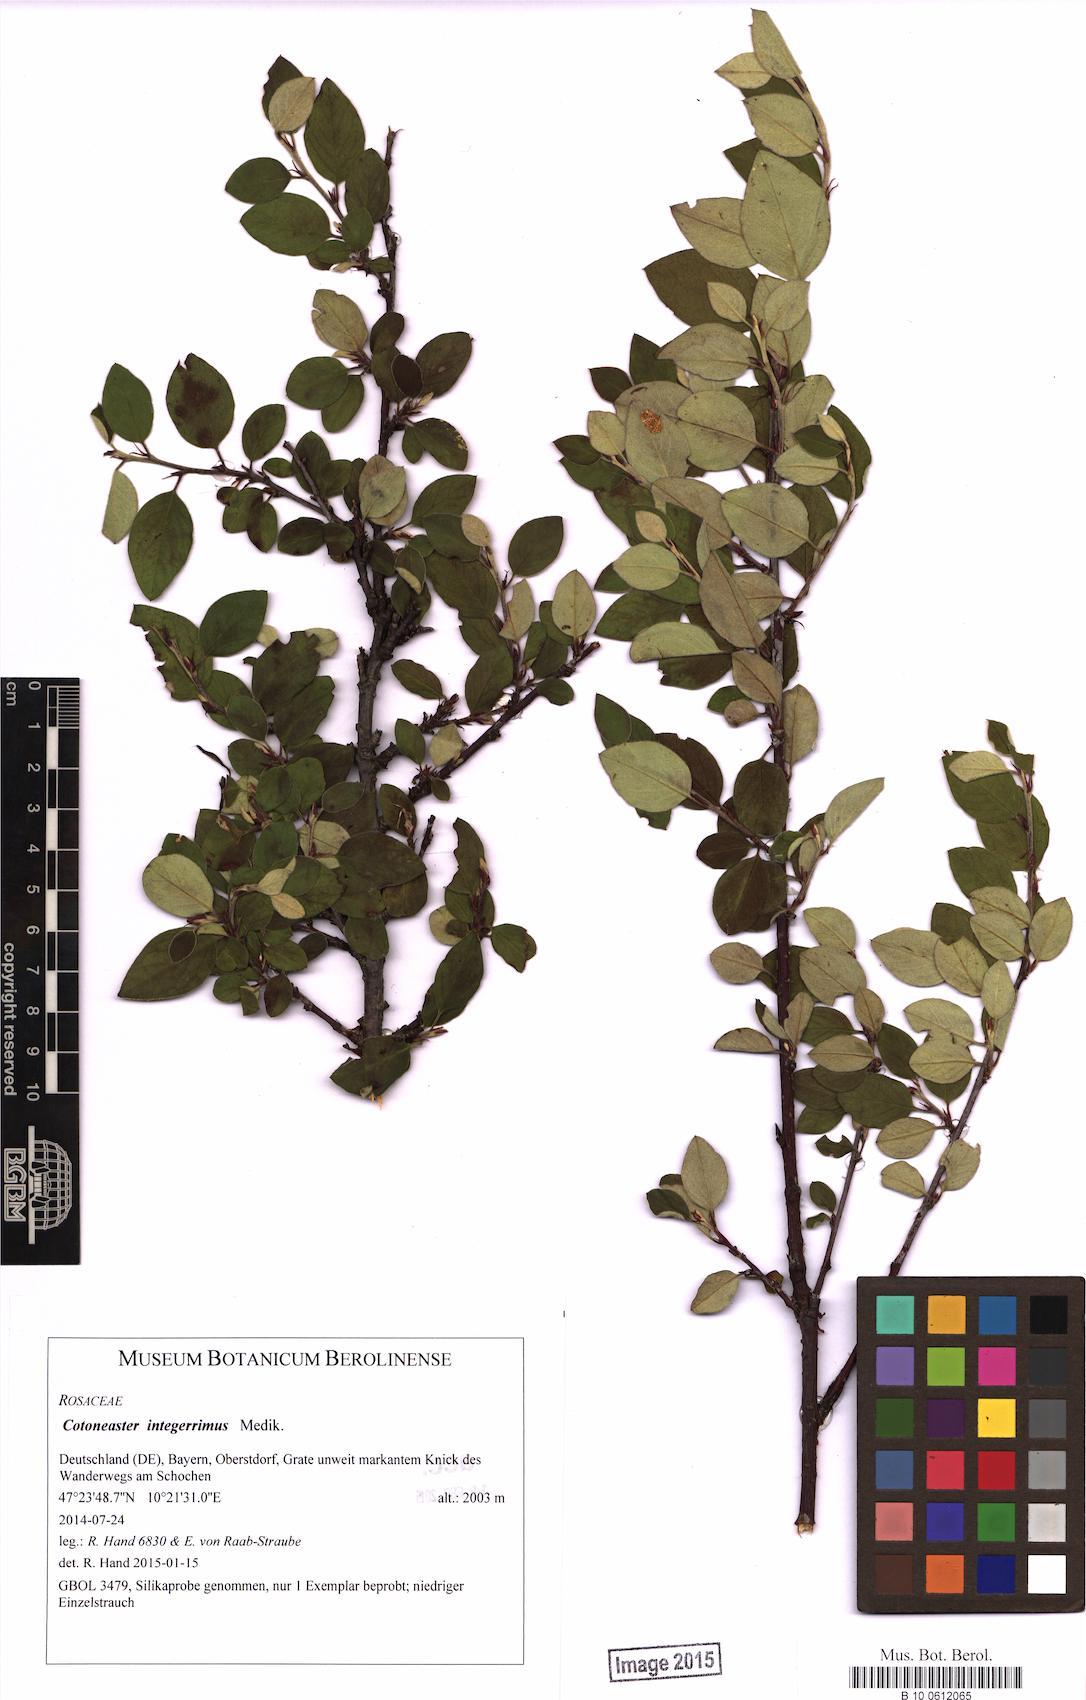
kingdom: Plantae
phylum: Tracheophyta
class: Magnoliopsida
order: Rosales
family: Rosaceae
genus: Cotoneaster
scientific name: Cotoneaster integerrimus
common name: Wild cotoneaster
